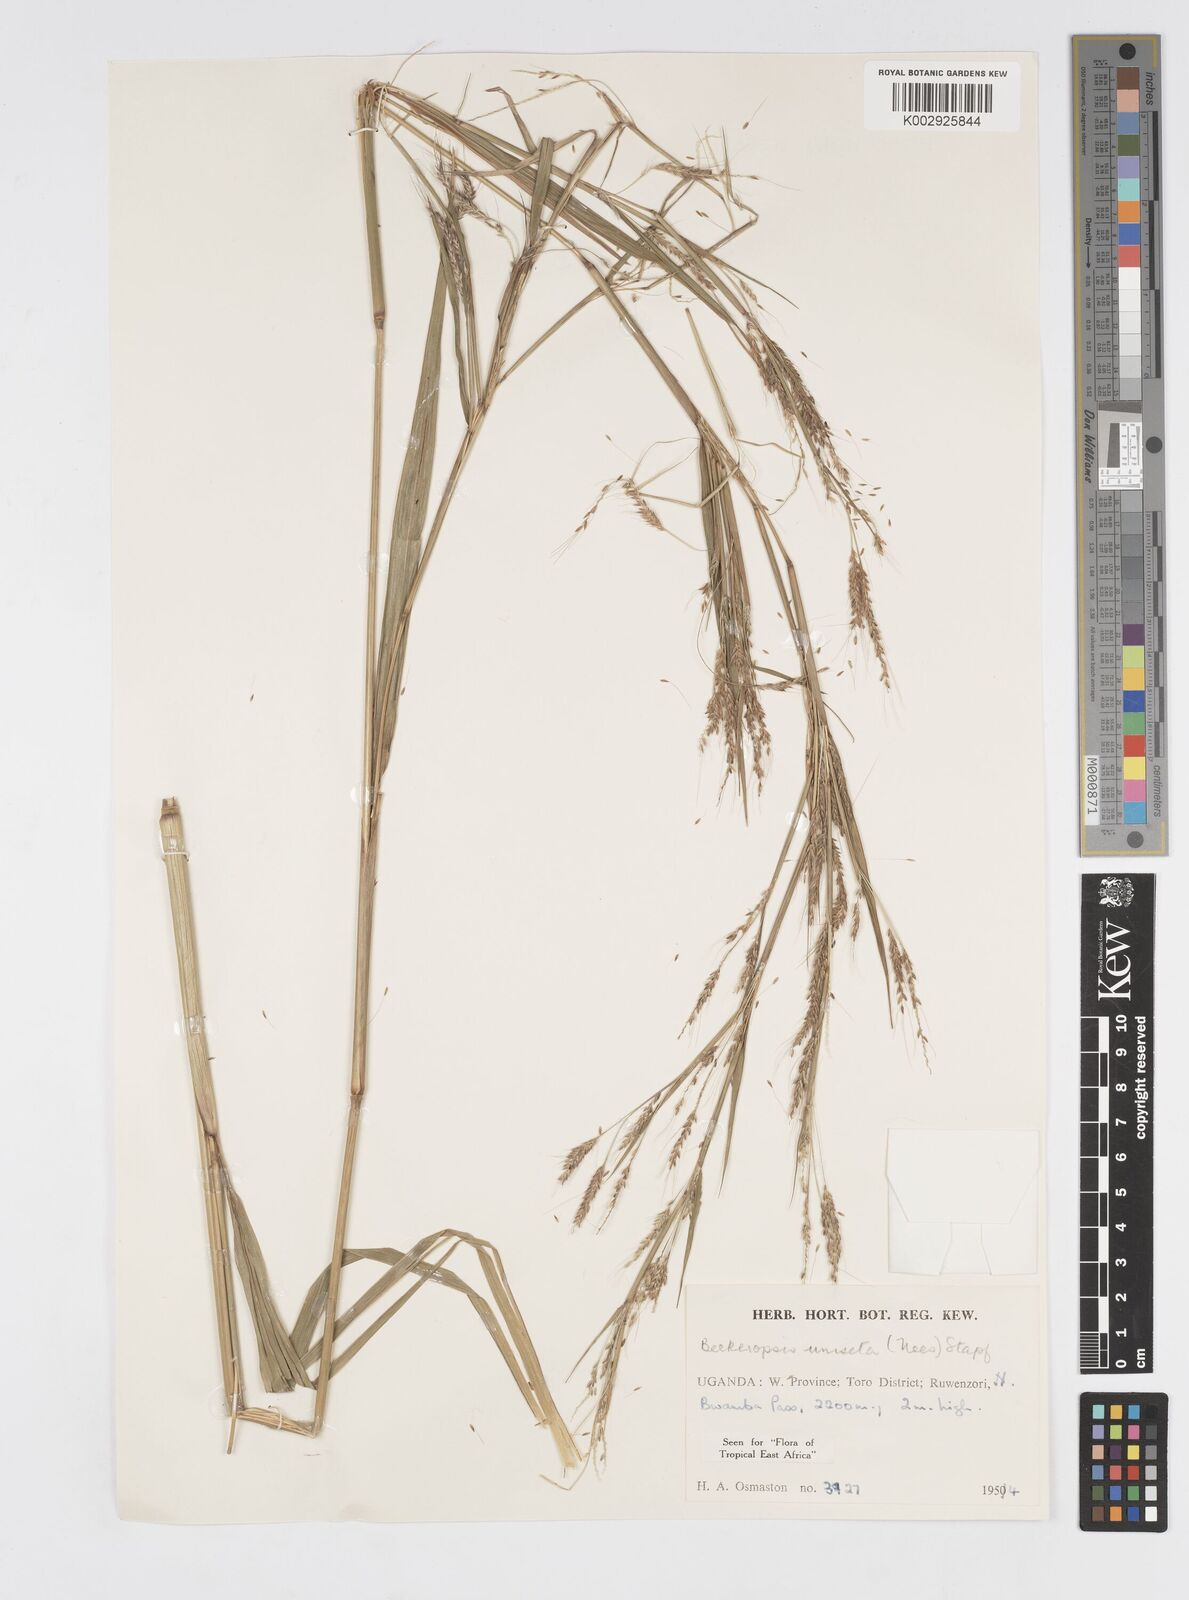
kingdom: Plantae
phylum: Tracheophyta
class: Liliopsida
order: Poales
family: Poaceae
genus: Cenchrus
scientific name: Cenchrus unisetus
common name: Natal grass
